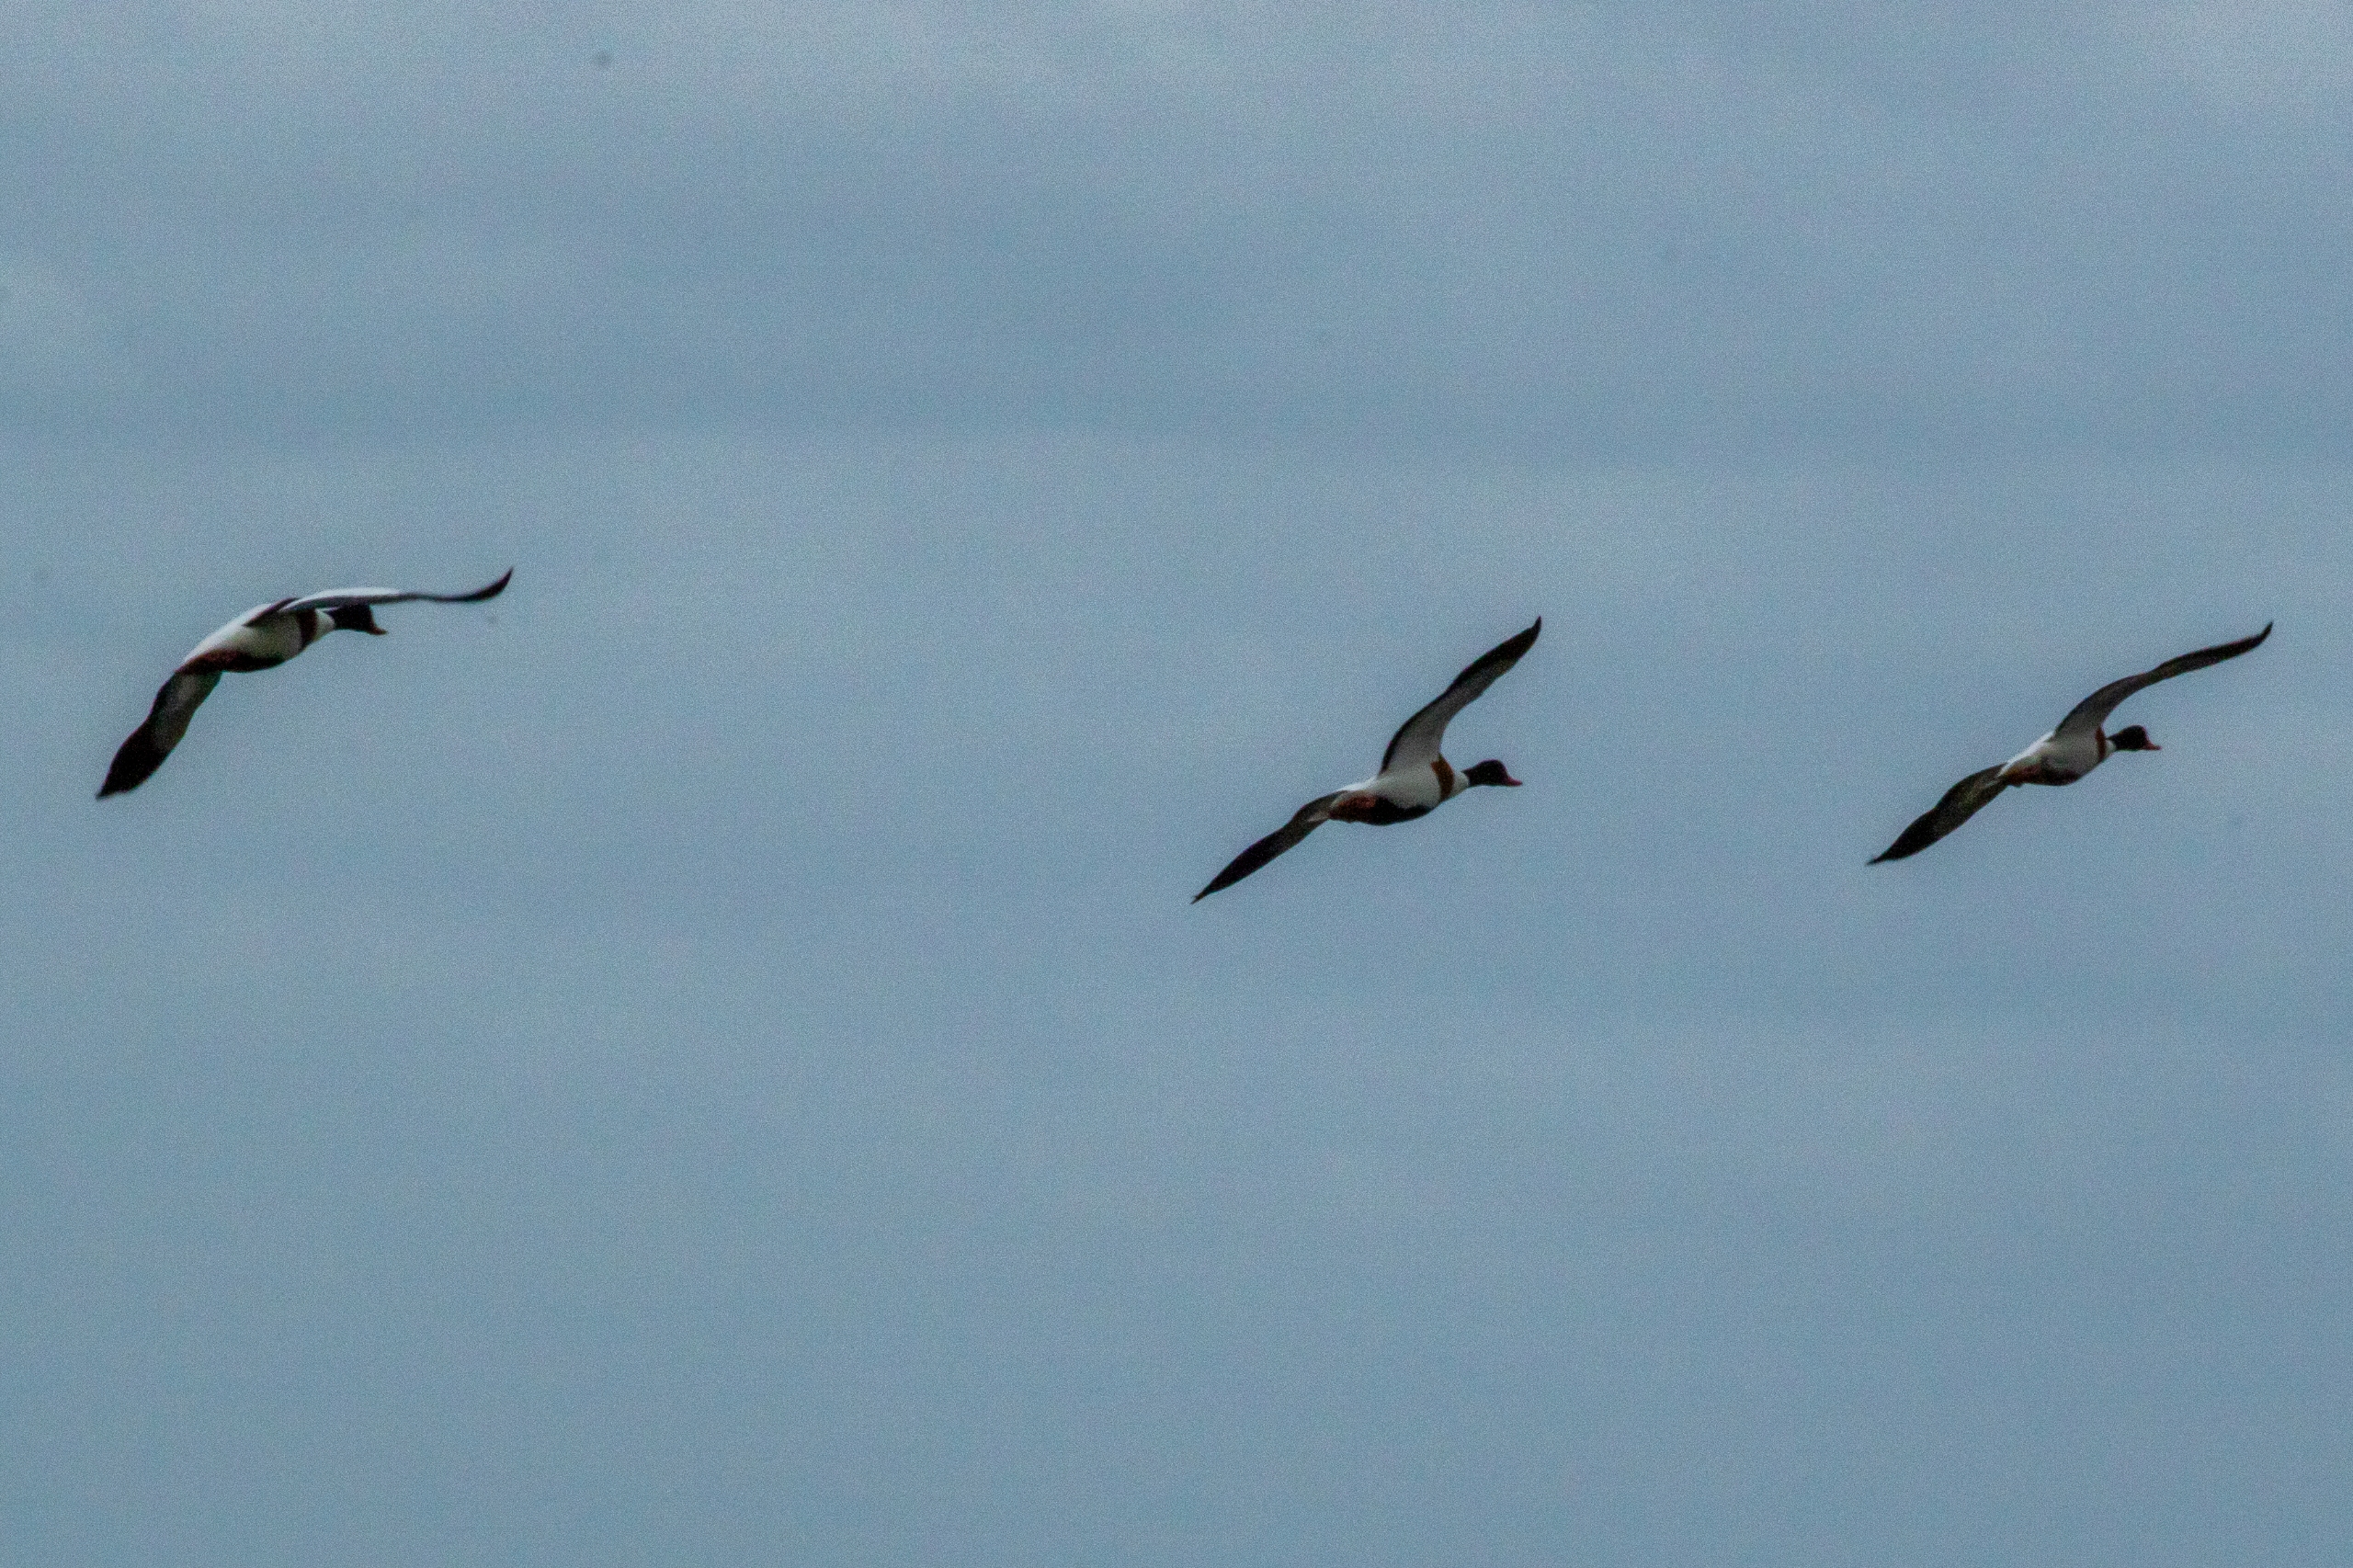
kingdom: Animalia
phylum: Chordata
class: Aves
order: Anseriformes
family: Anatidae
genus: Tadorna
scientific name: Tadorna tadorna
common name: Gravand
